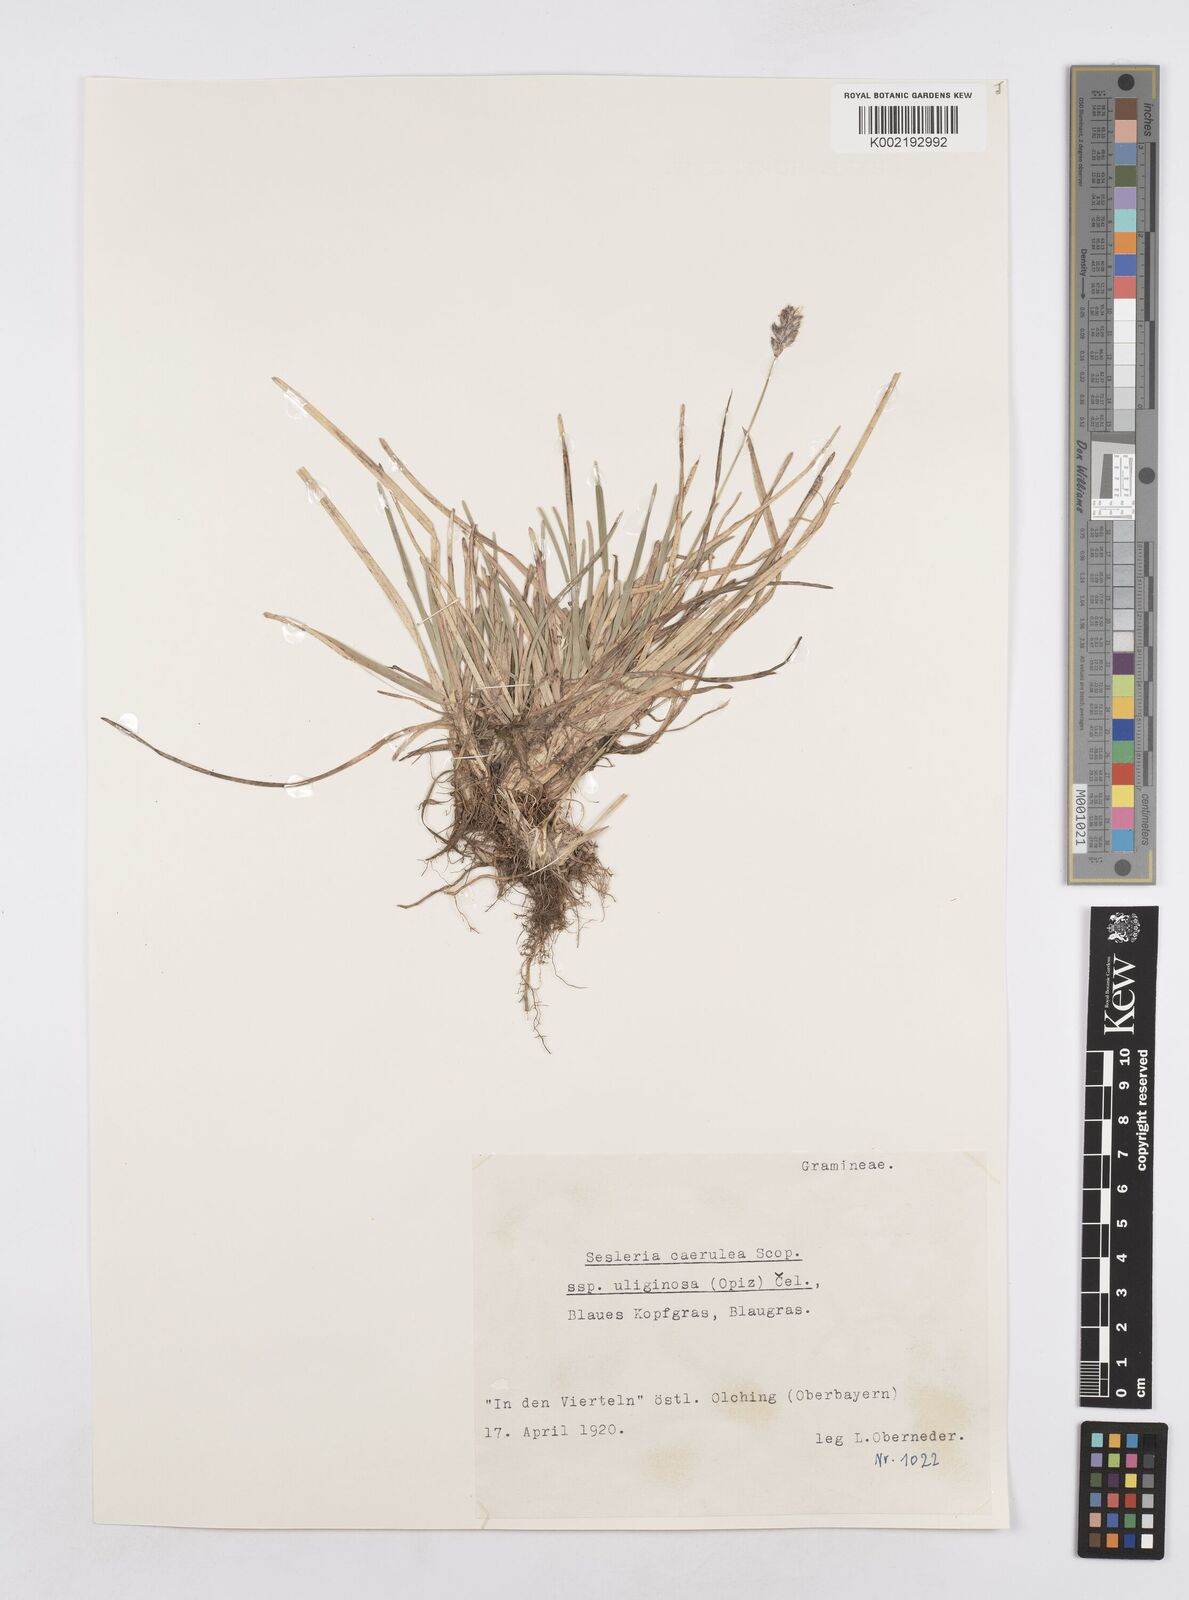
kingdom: Plantae
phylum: Tracheophyta
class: Liliopsida
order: Poales
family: Poaceae
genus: Sesleria
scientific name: Sesleria caerulea
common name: Blue moor-grass
